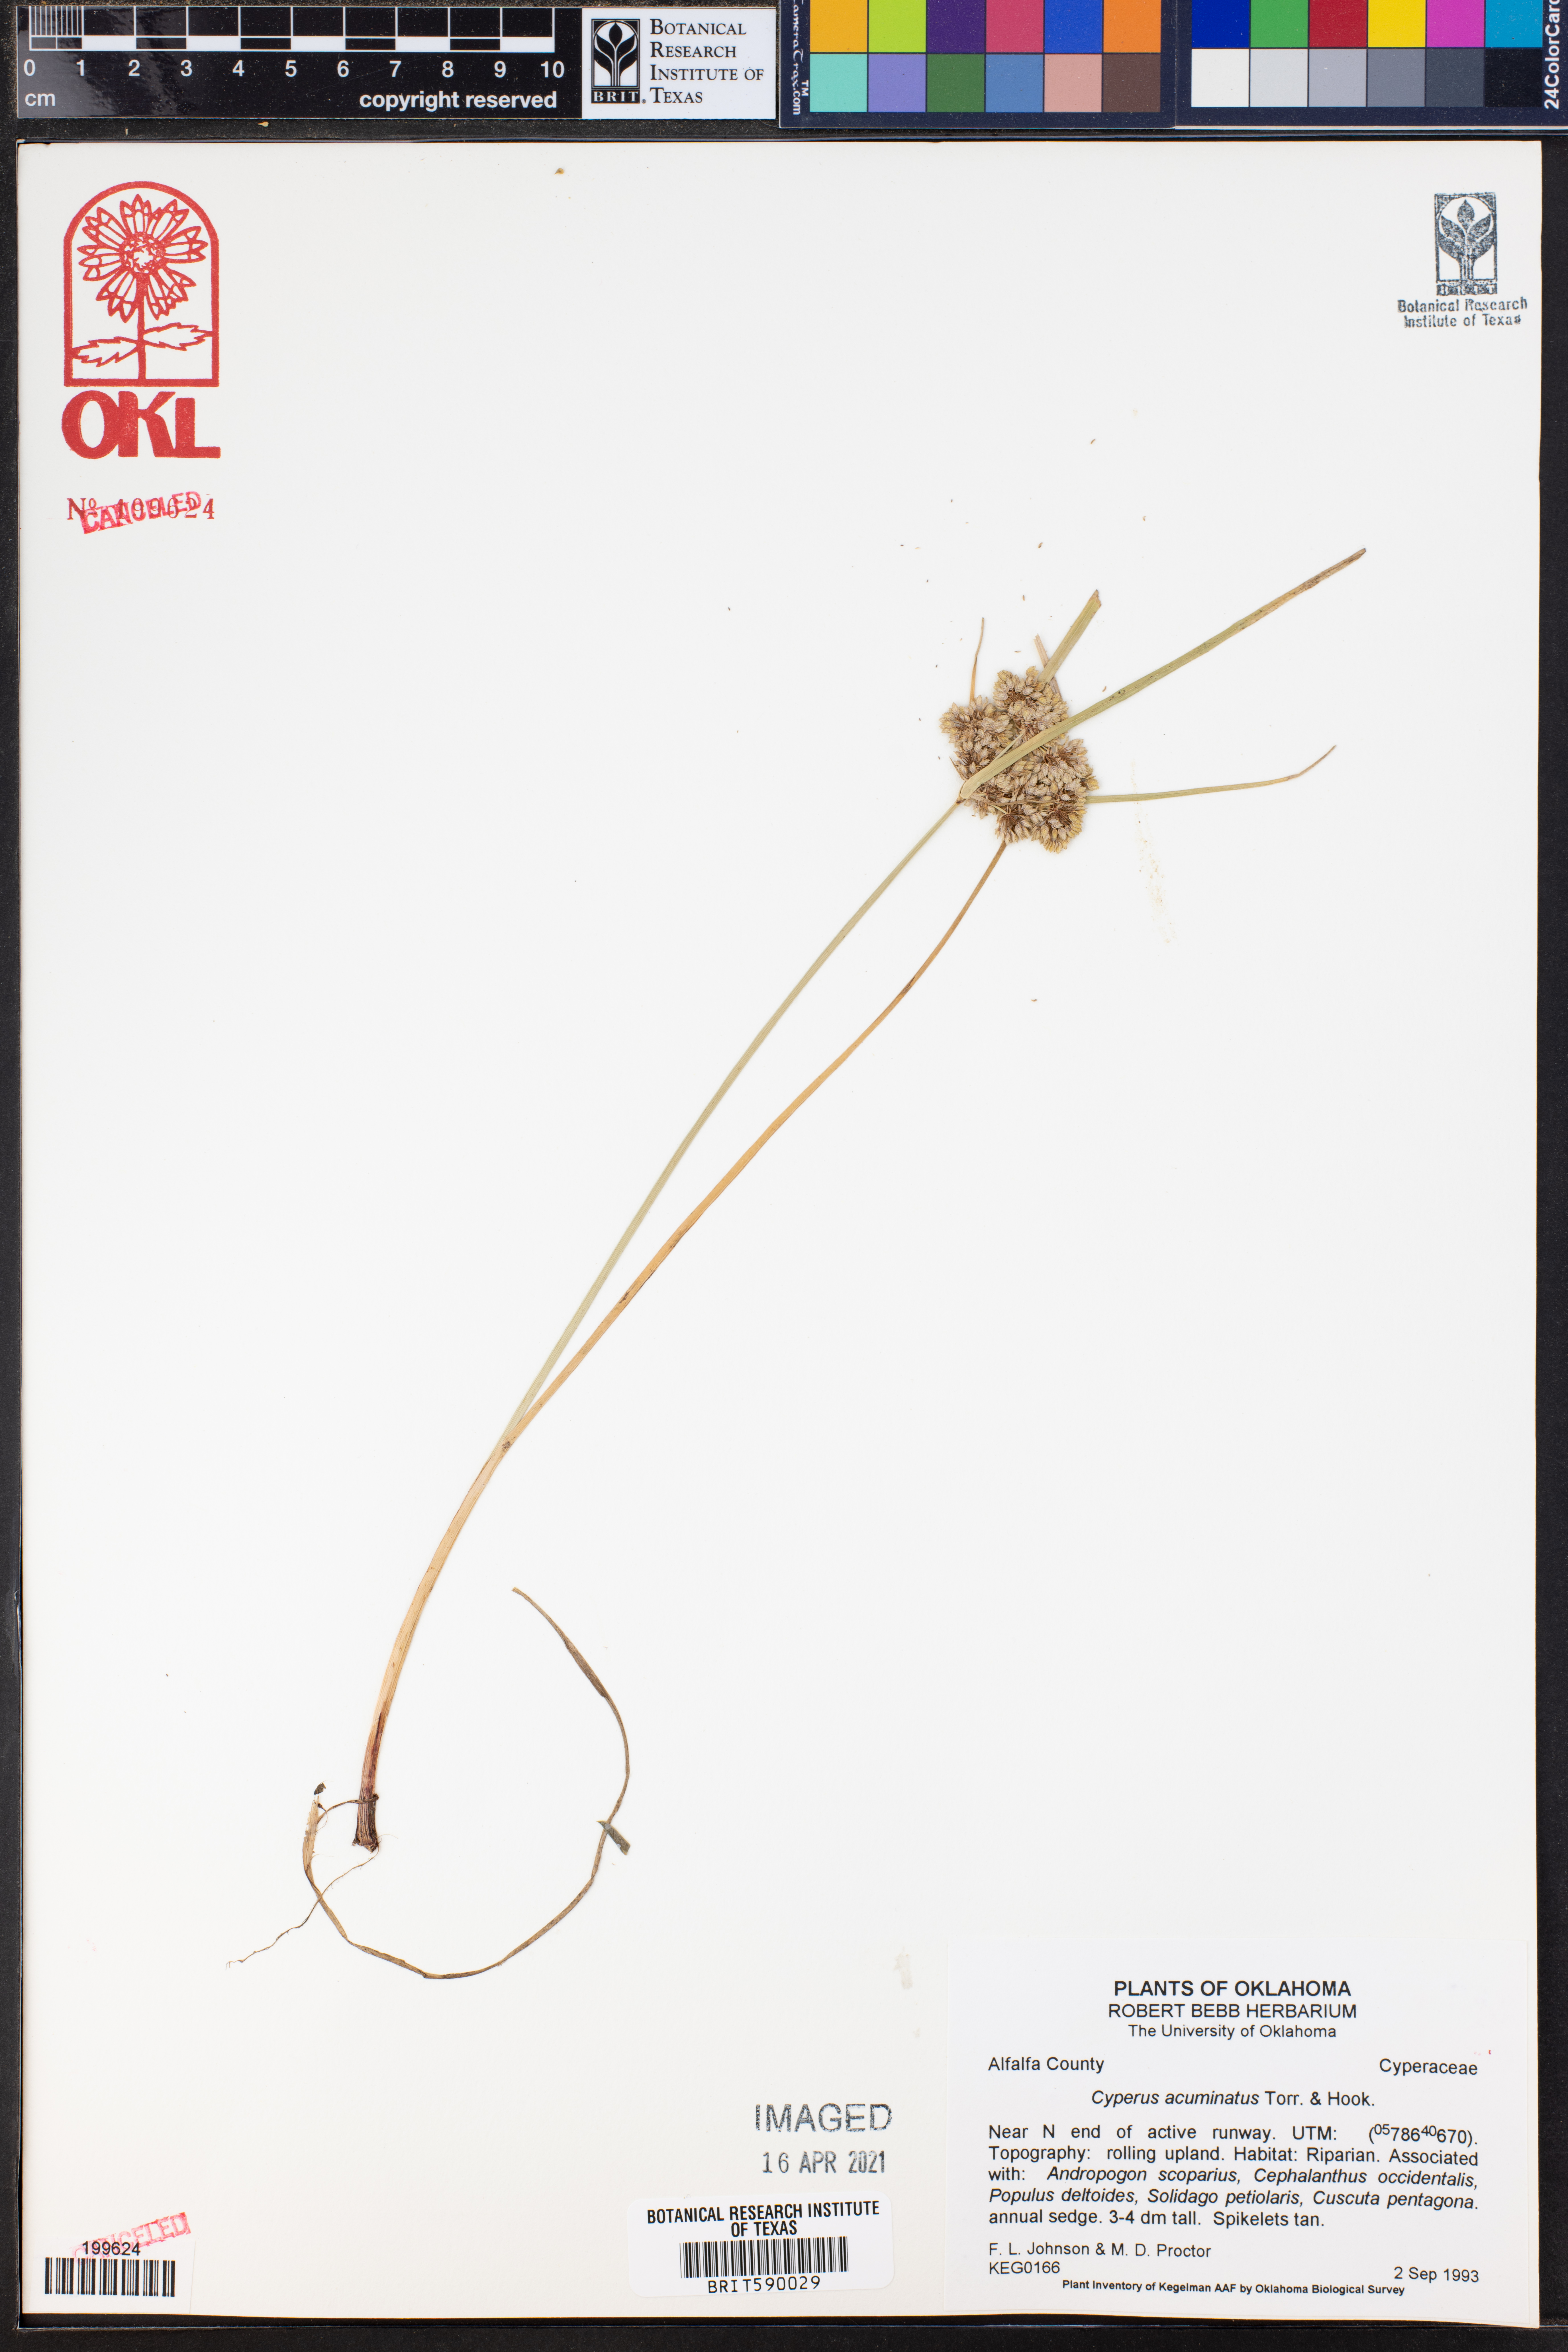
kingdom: Plantae
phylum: Tracheophyta
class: Liliopsida
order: Poales
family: Cyperaceae
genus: Cyperus
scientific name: Cyperus acuminatus
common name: Short-pointed cyperus
